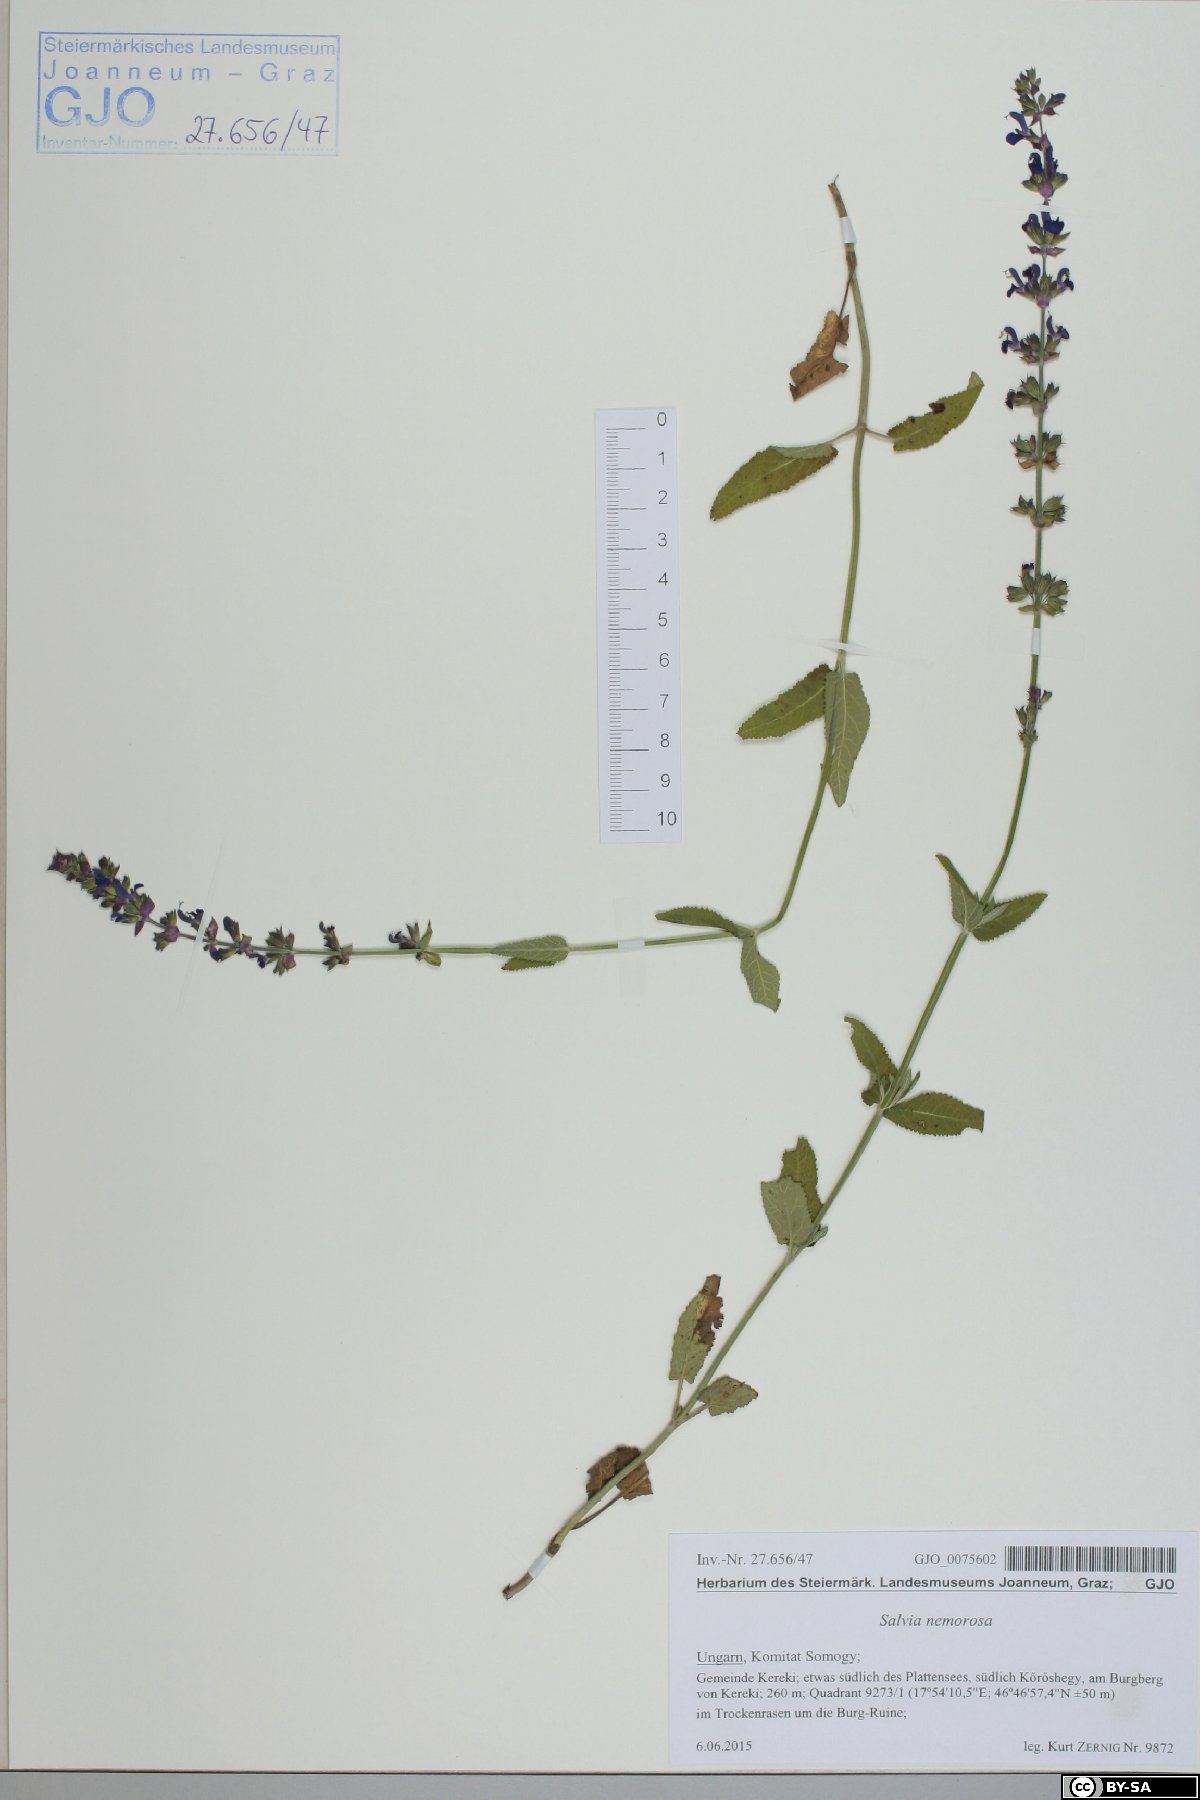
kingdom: Plantae
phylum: Tracheophyta
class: Magnoliopsida
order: Lamiales
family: Lamiaceae
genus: Salvia
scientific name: Salvia nemorosa
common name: Balkan clary
